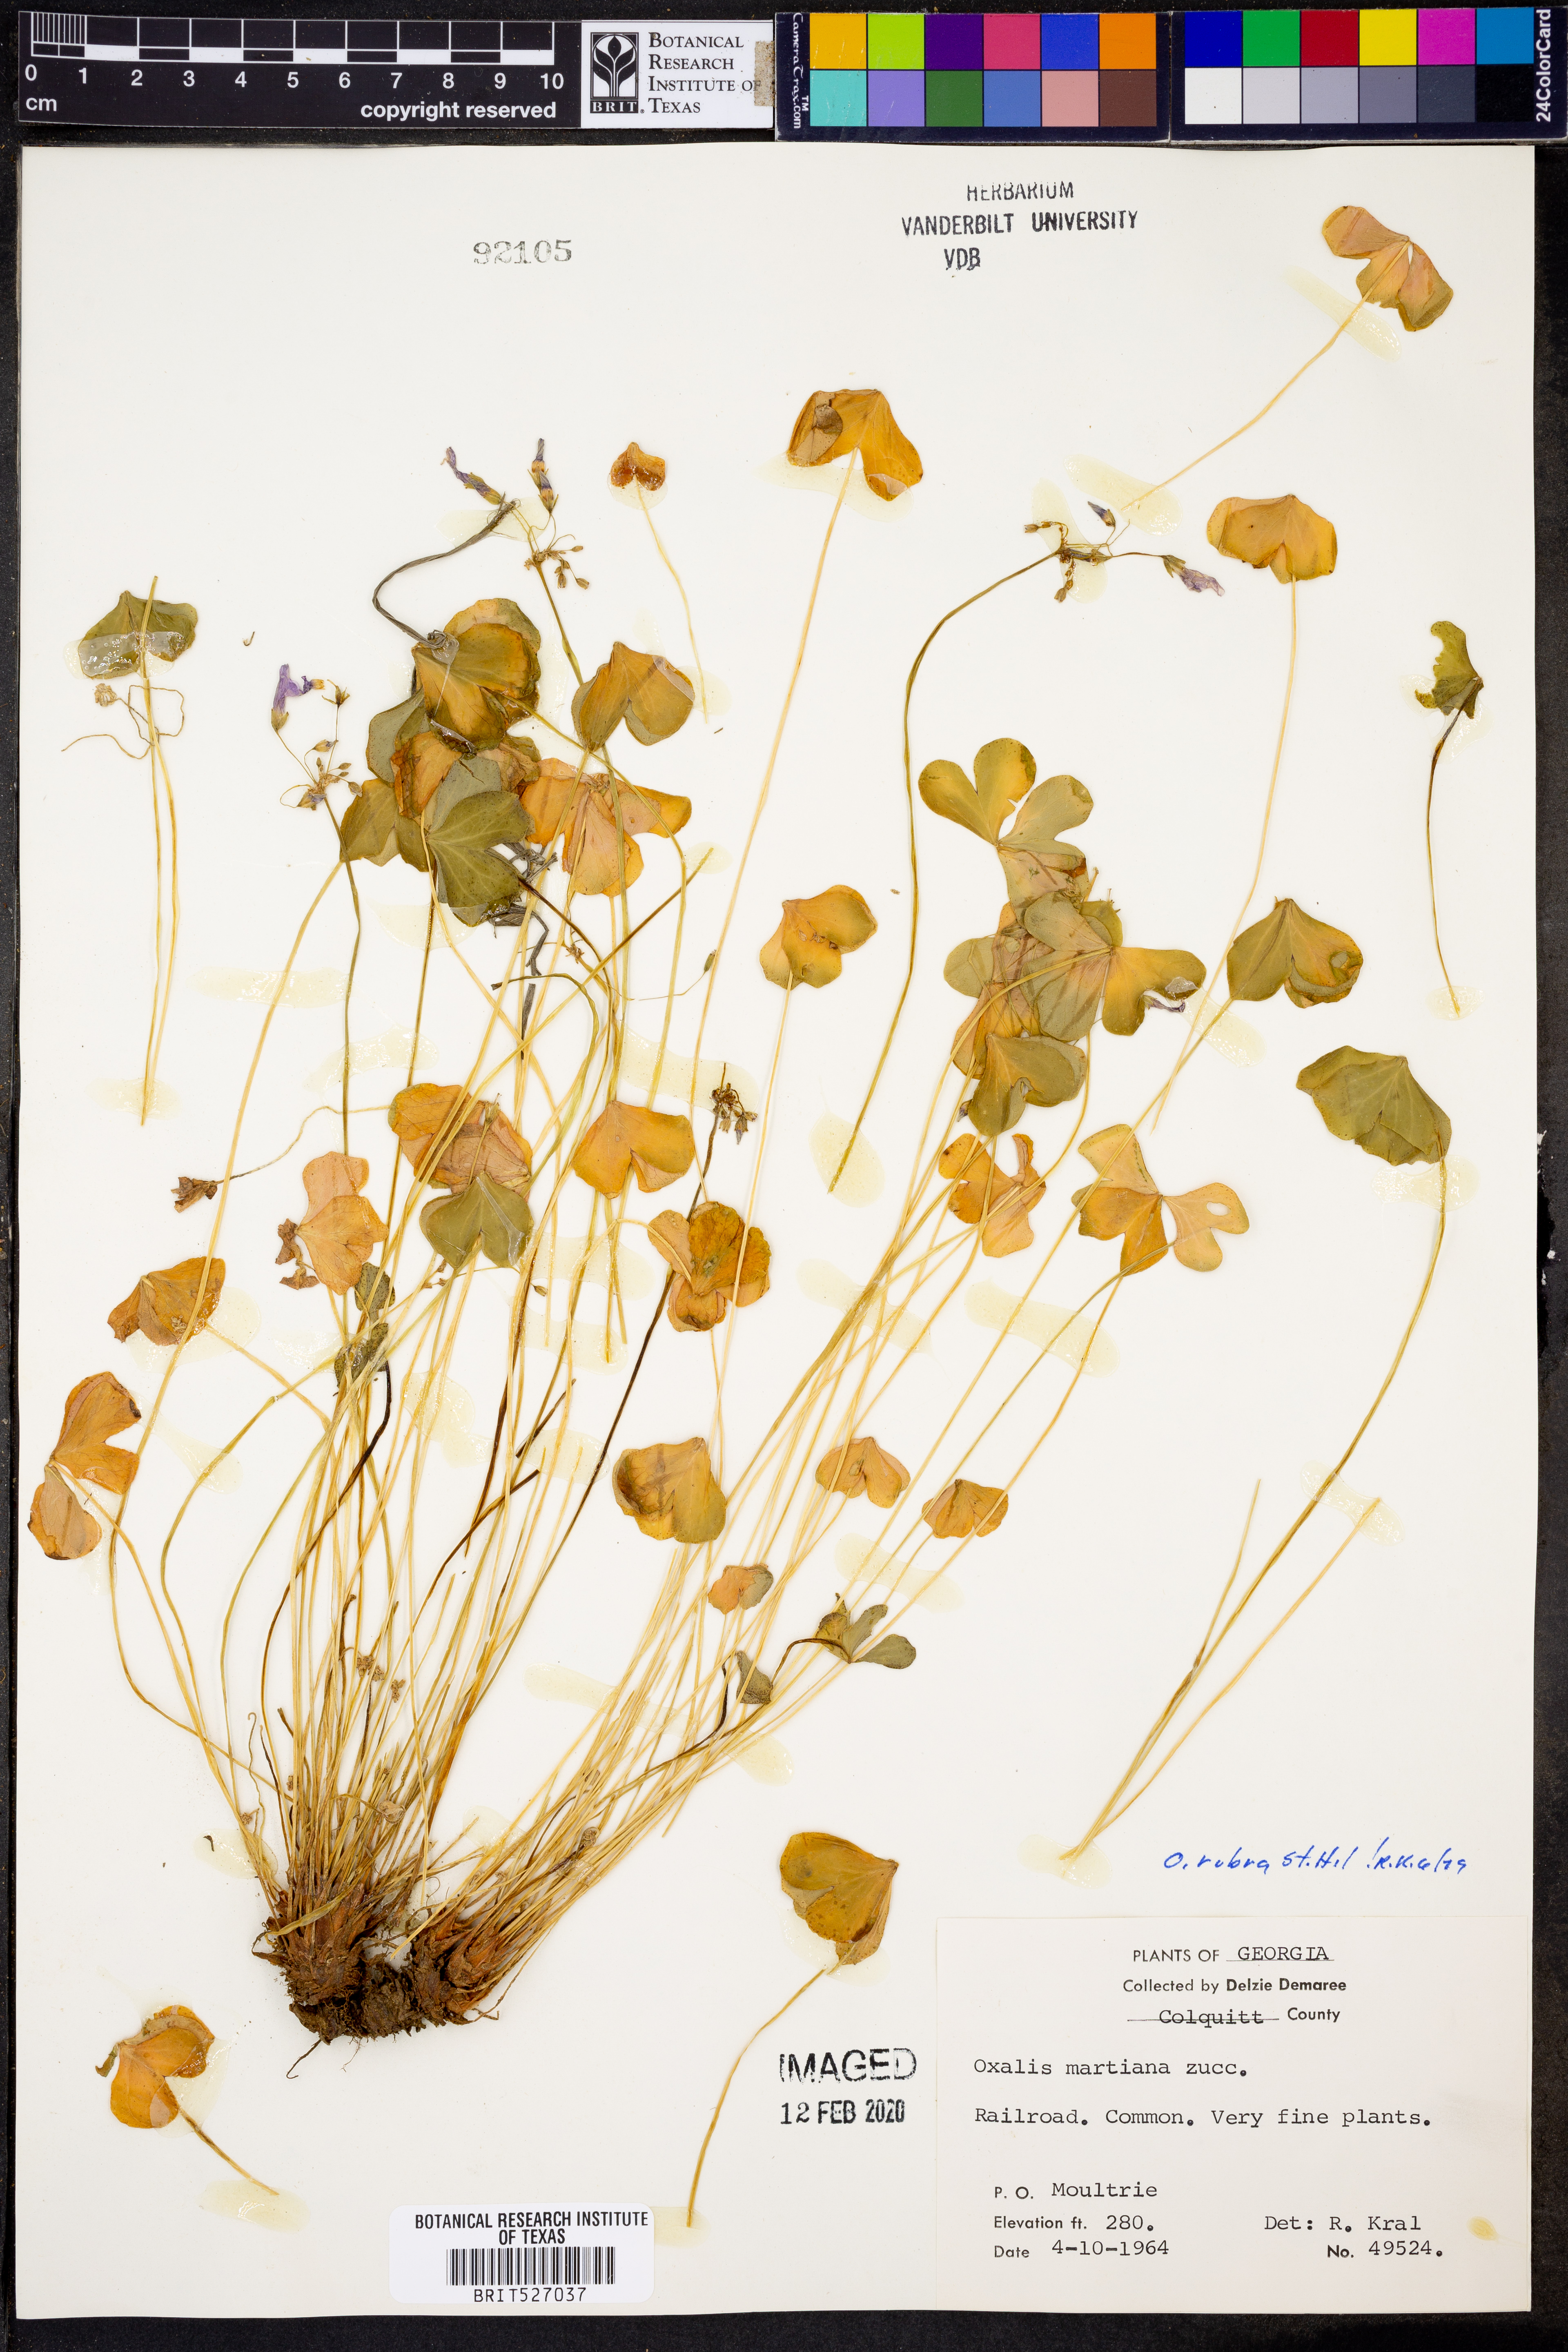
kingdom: Plantae
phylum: Tracheophyta
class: Magnoliopsida
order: Oxalidales
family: Oxalidaceae
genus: Oxalis
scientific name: Oxalis articulata
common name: Pink-sorrel
